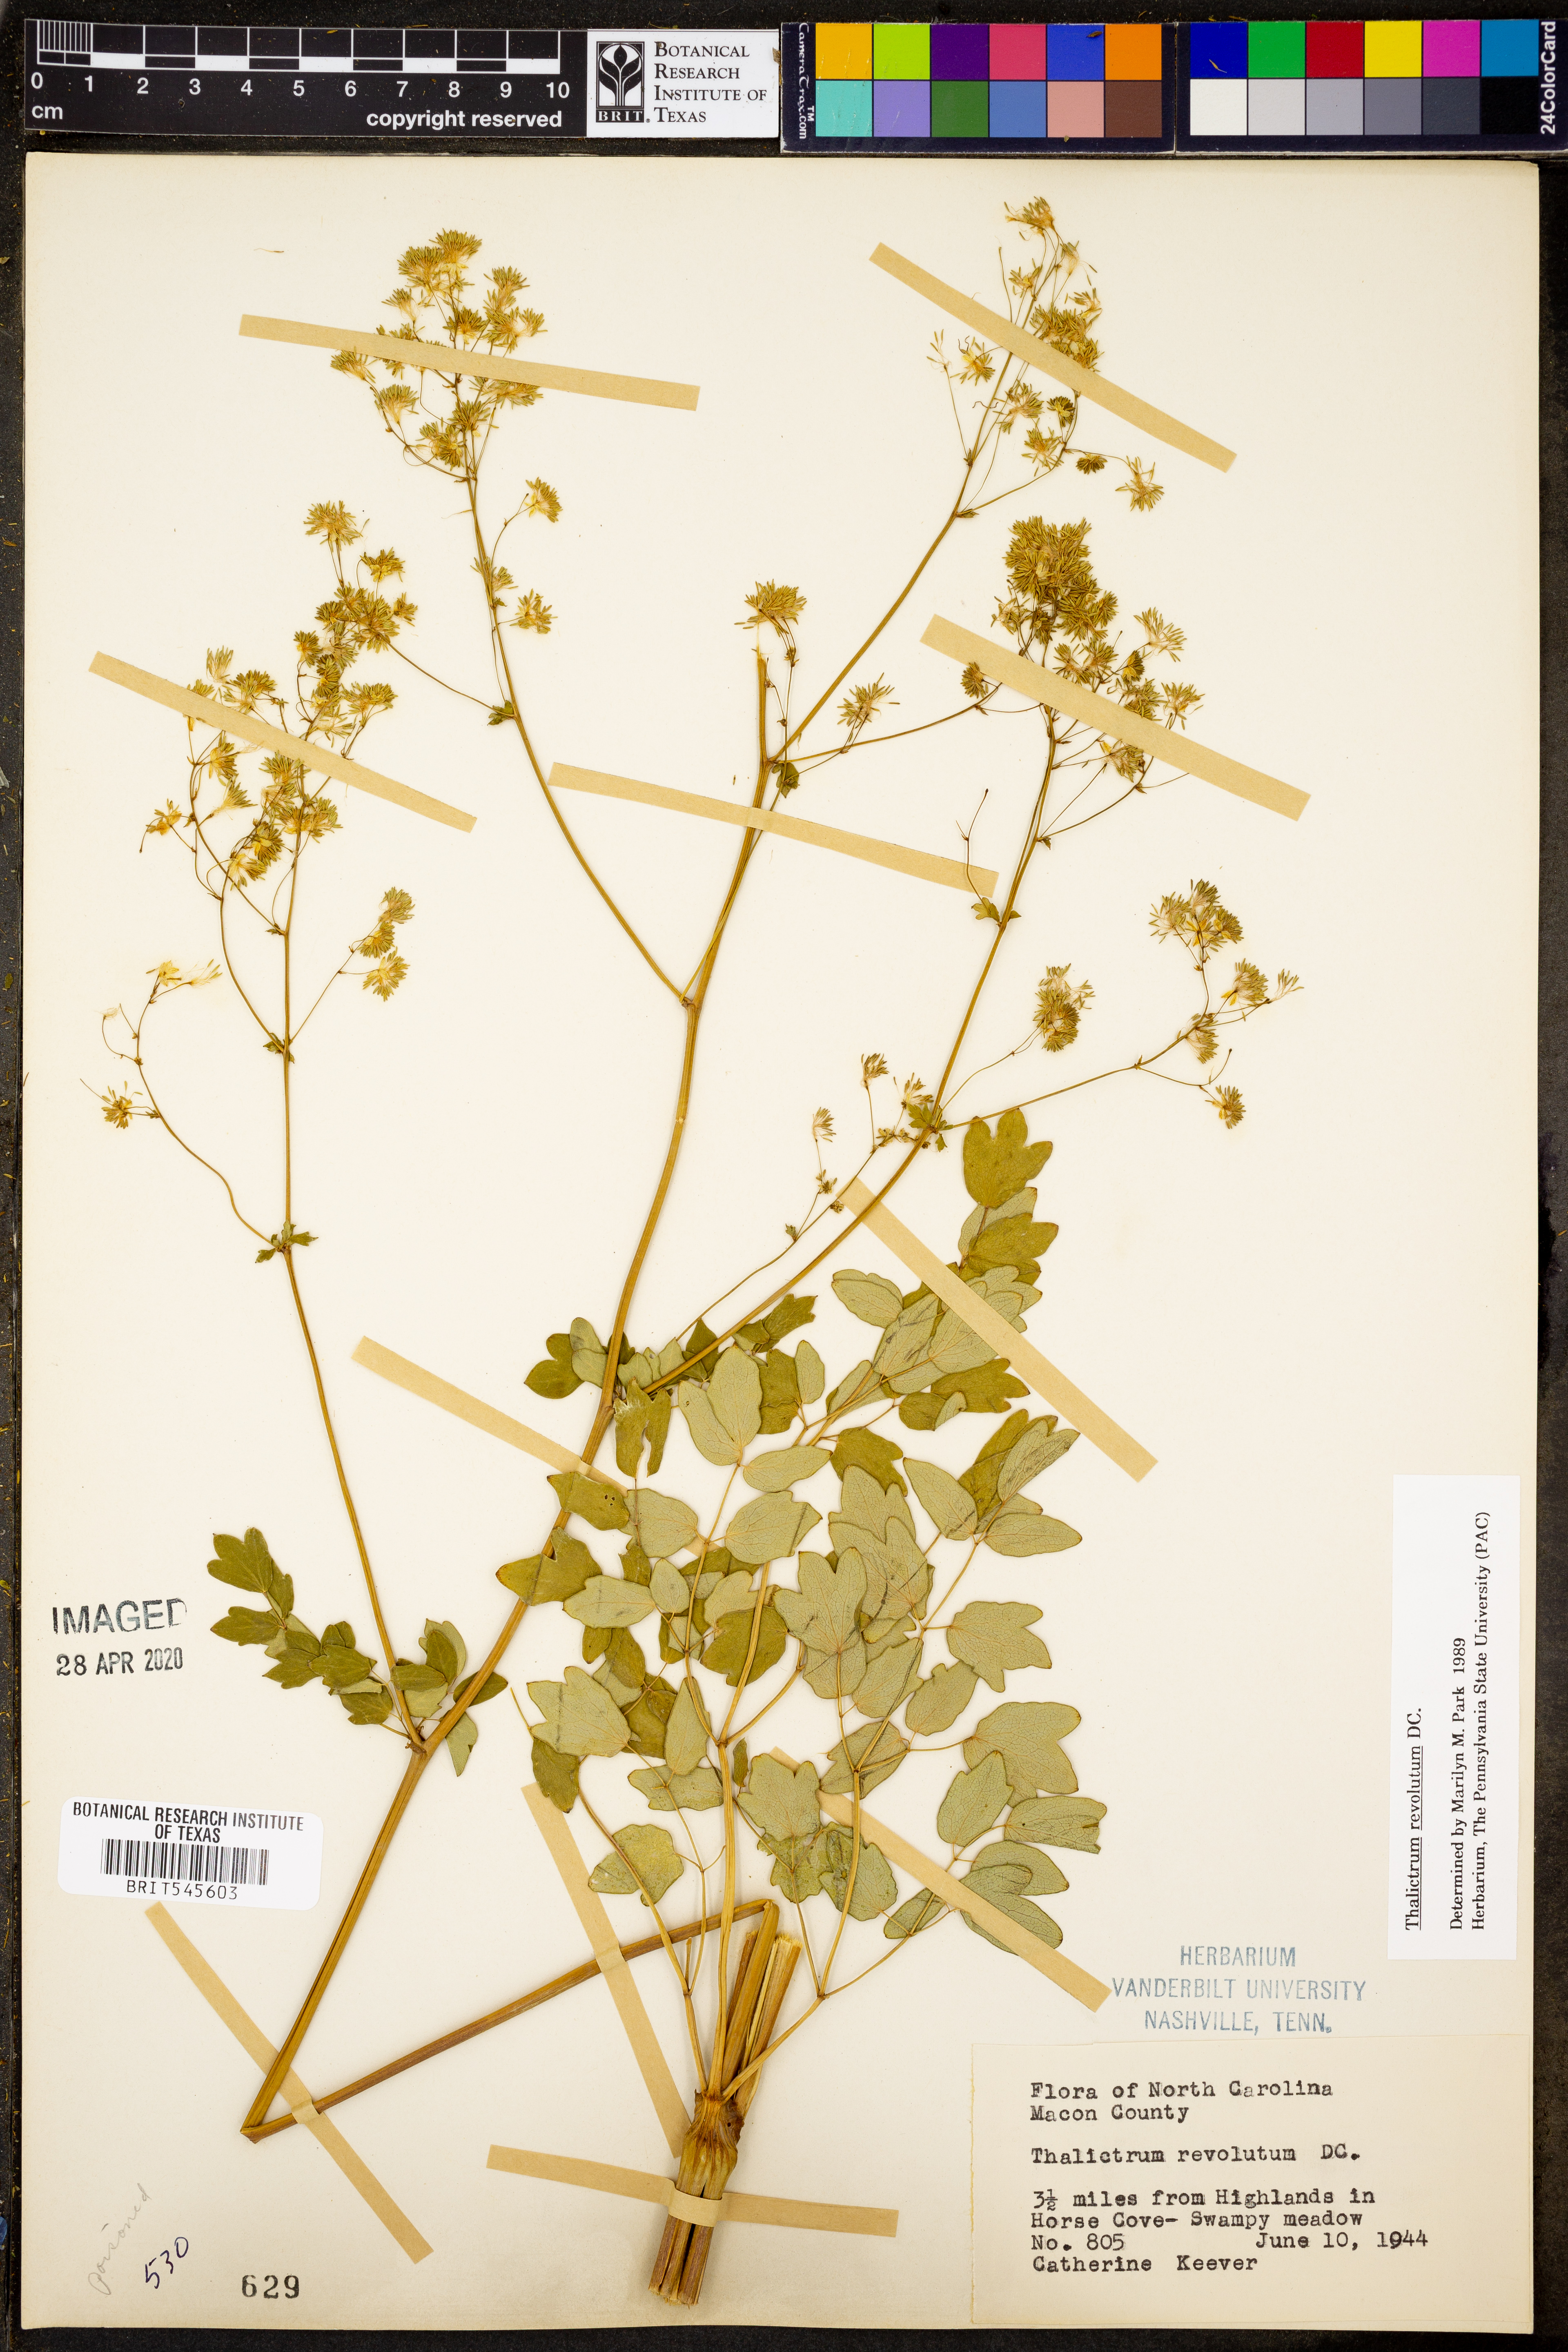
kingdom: Plantae
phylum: Tracheophyta
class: Magnoliopsida
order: Ranunculales
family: Ranunculaceae
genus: Thalictrum
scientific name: Thalictrum revolutum
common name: Waxy meadow-rue
